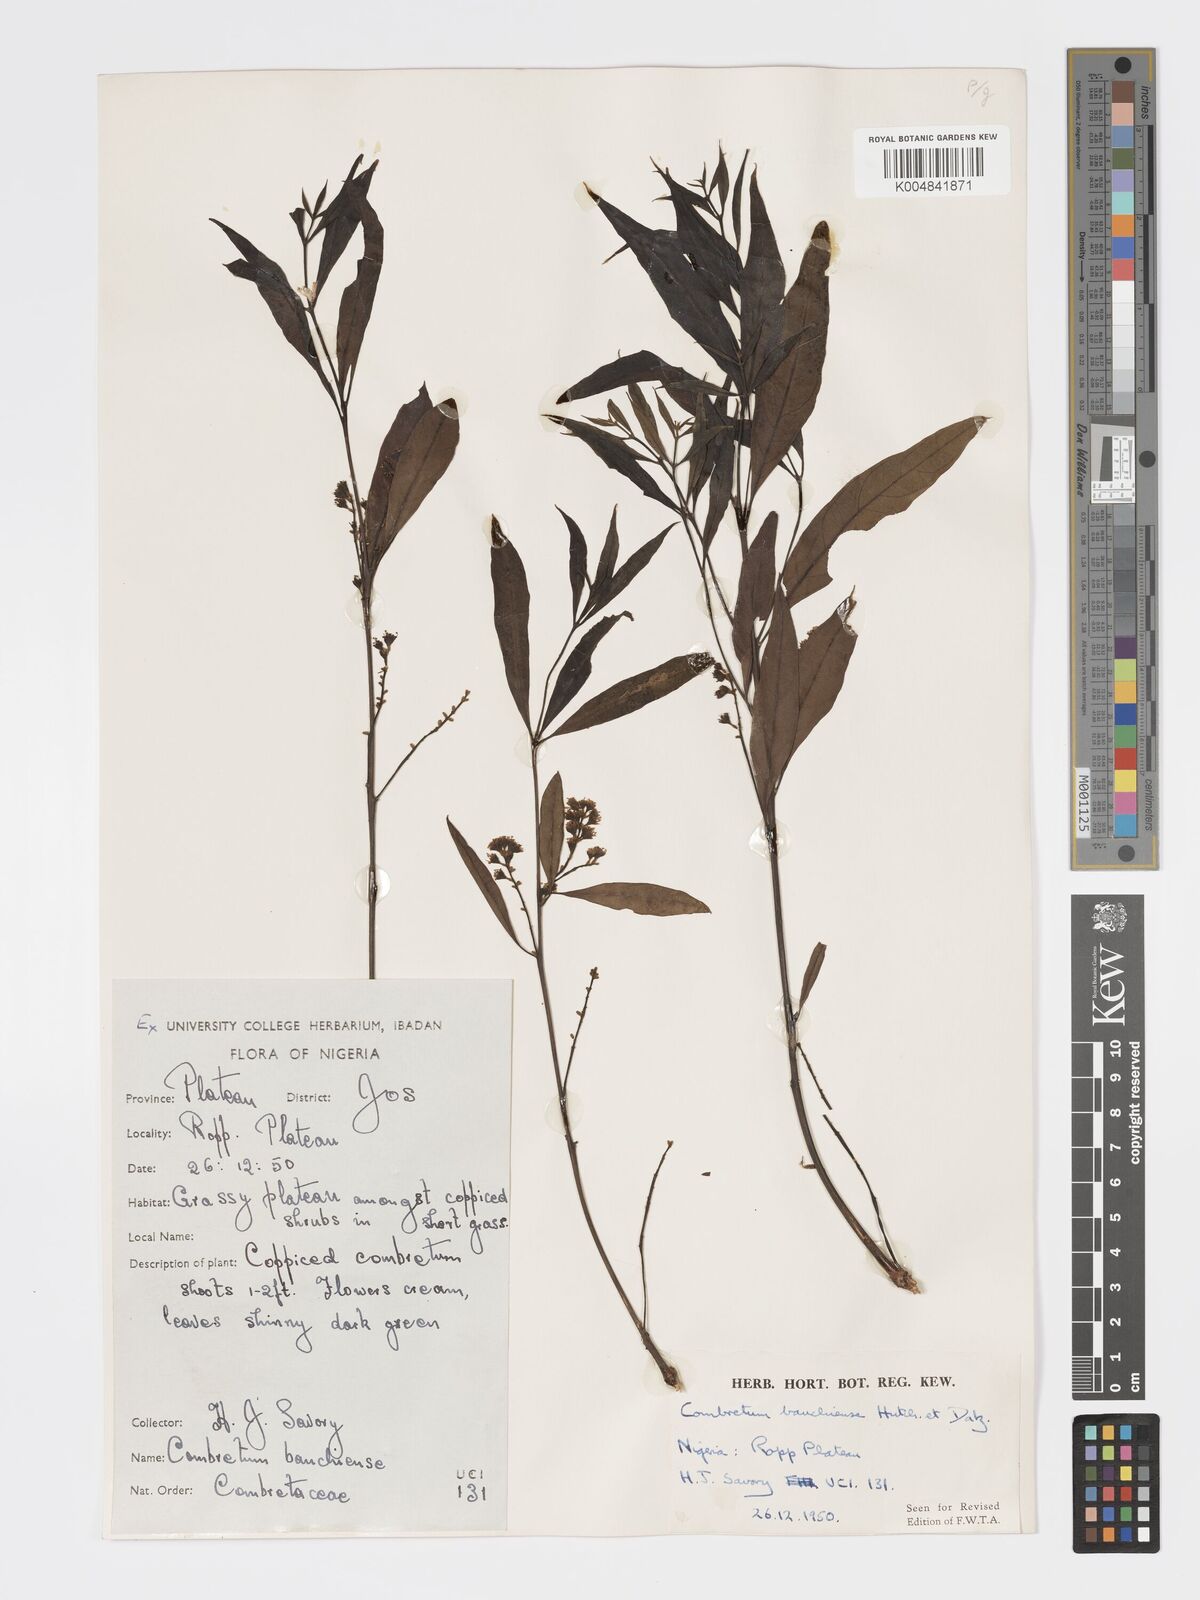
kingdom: Plantae
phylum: Tracheophyta
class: Magnoliopsida
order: Myrtales
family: Combretaceae
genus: Combretum
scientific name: Combretum bauchiense
